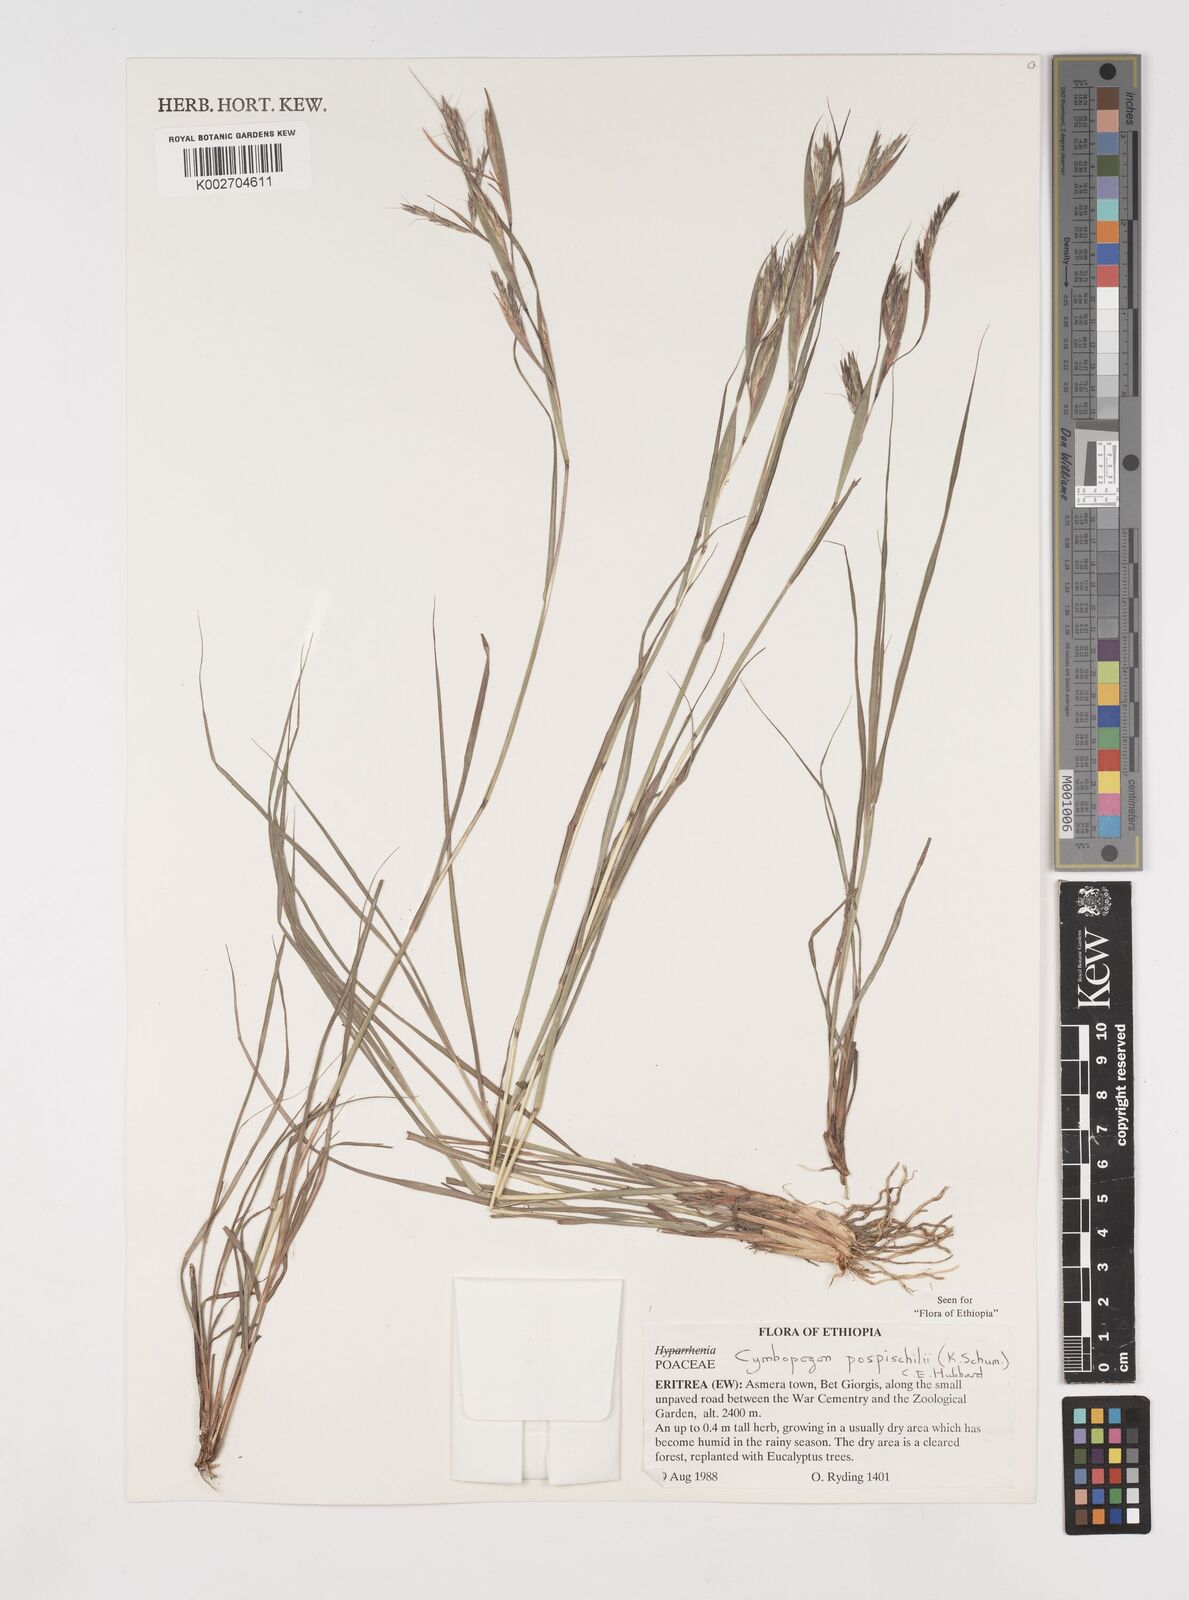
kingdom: Plantae
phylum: Tracheophyta
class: Liliopsida
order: Poales
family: Poaceae
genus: Cymbopogon
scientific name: Cymbopogon pospischilii
